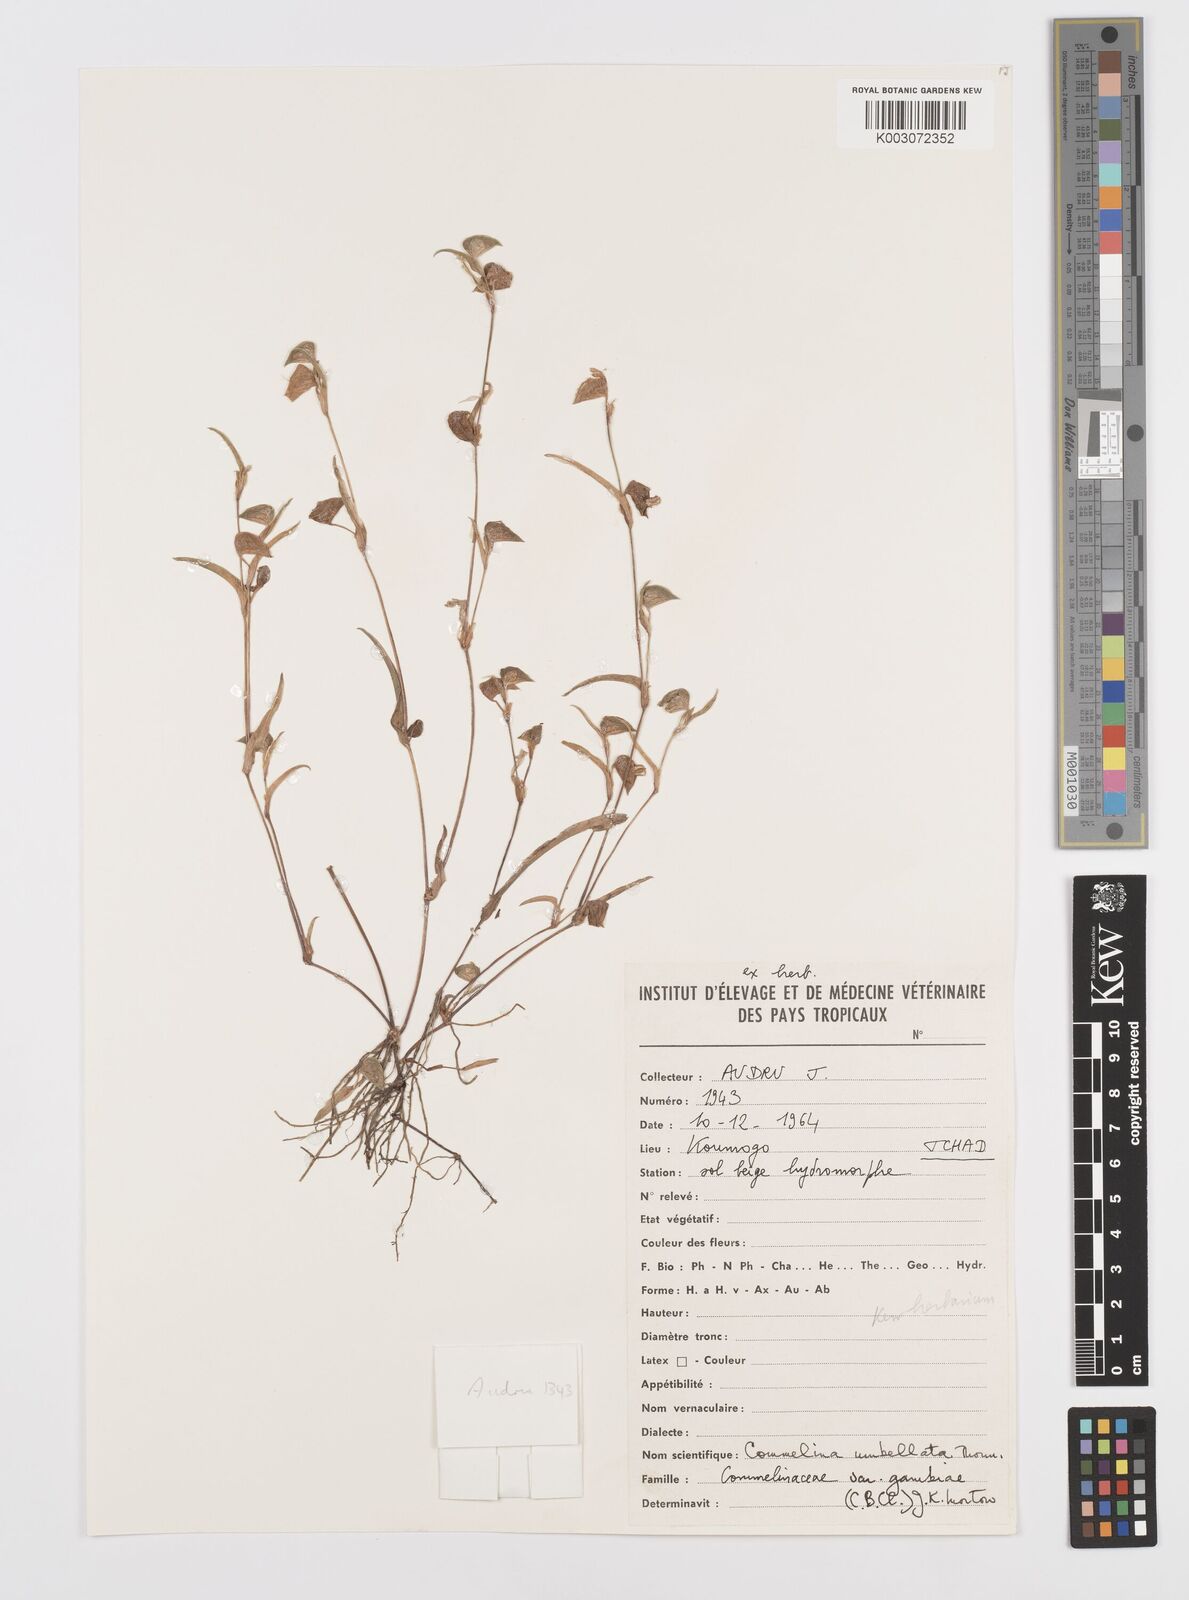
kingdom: Plantae
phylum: Tracheophyta
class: Liliopsida
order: Commelinales
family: Commelinaceae
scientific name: Commelinaceae
